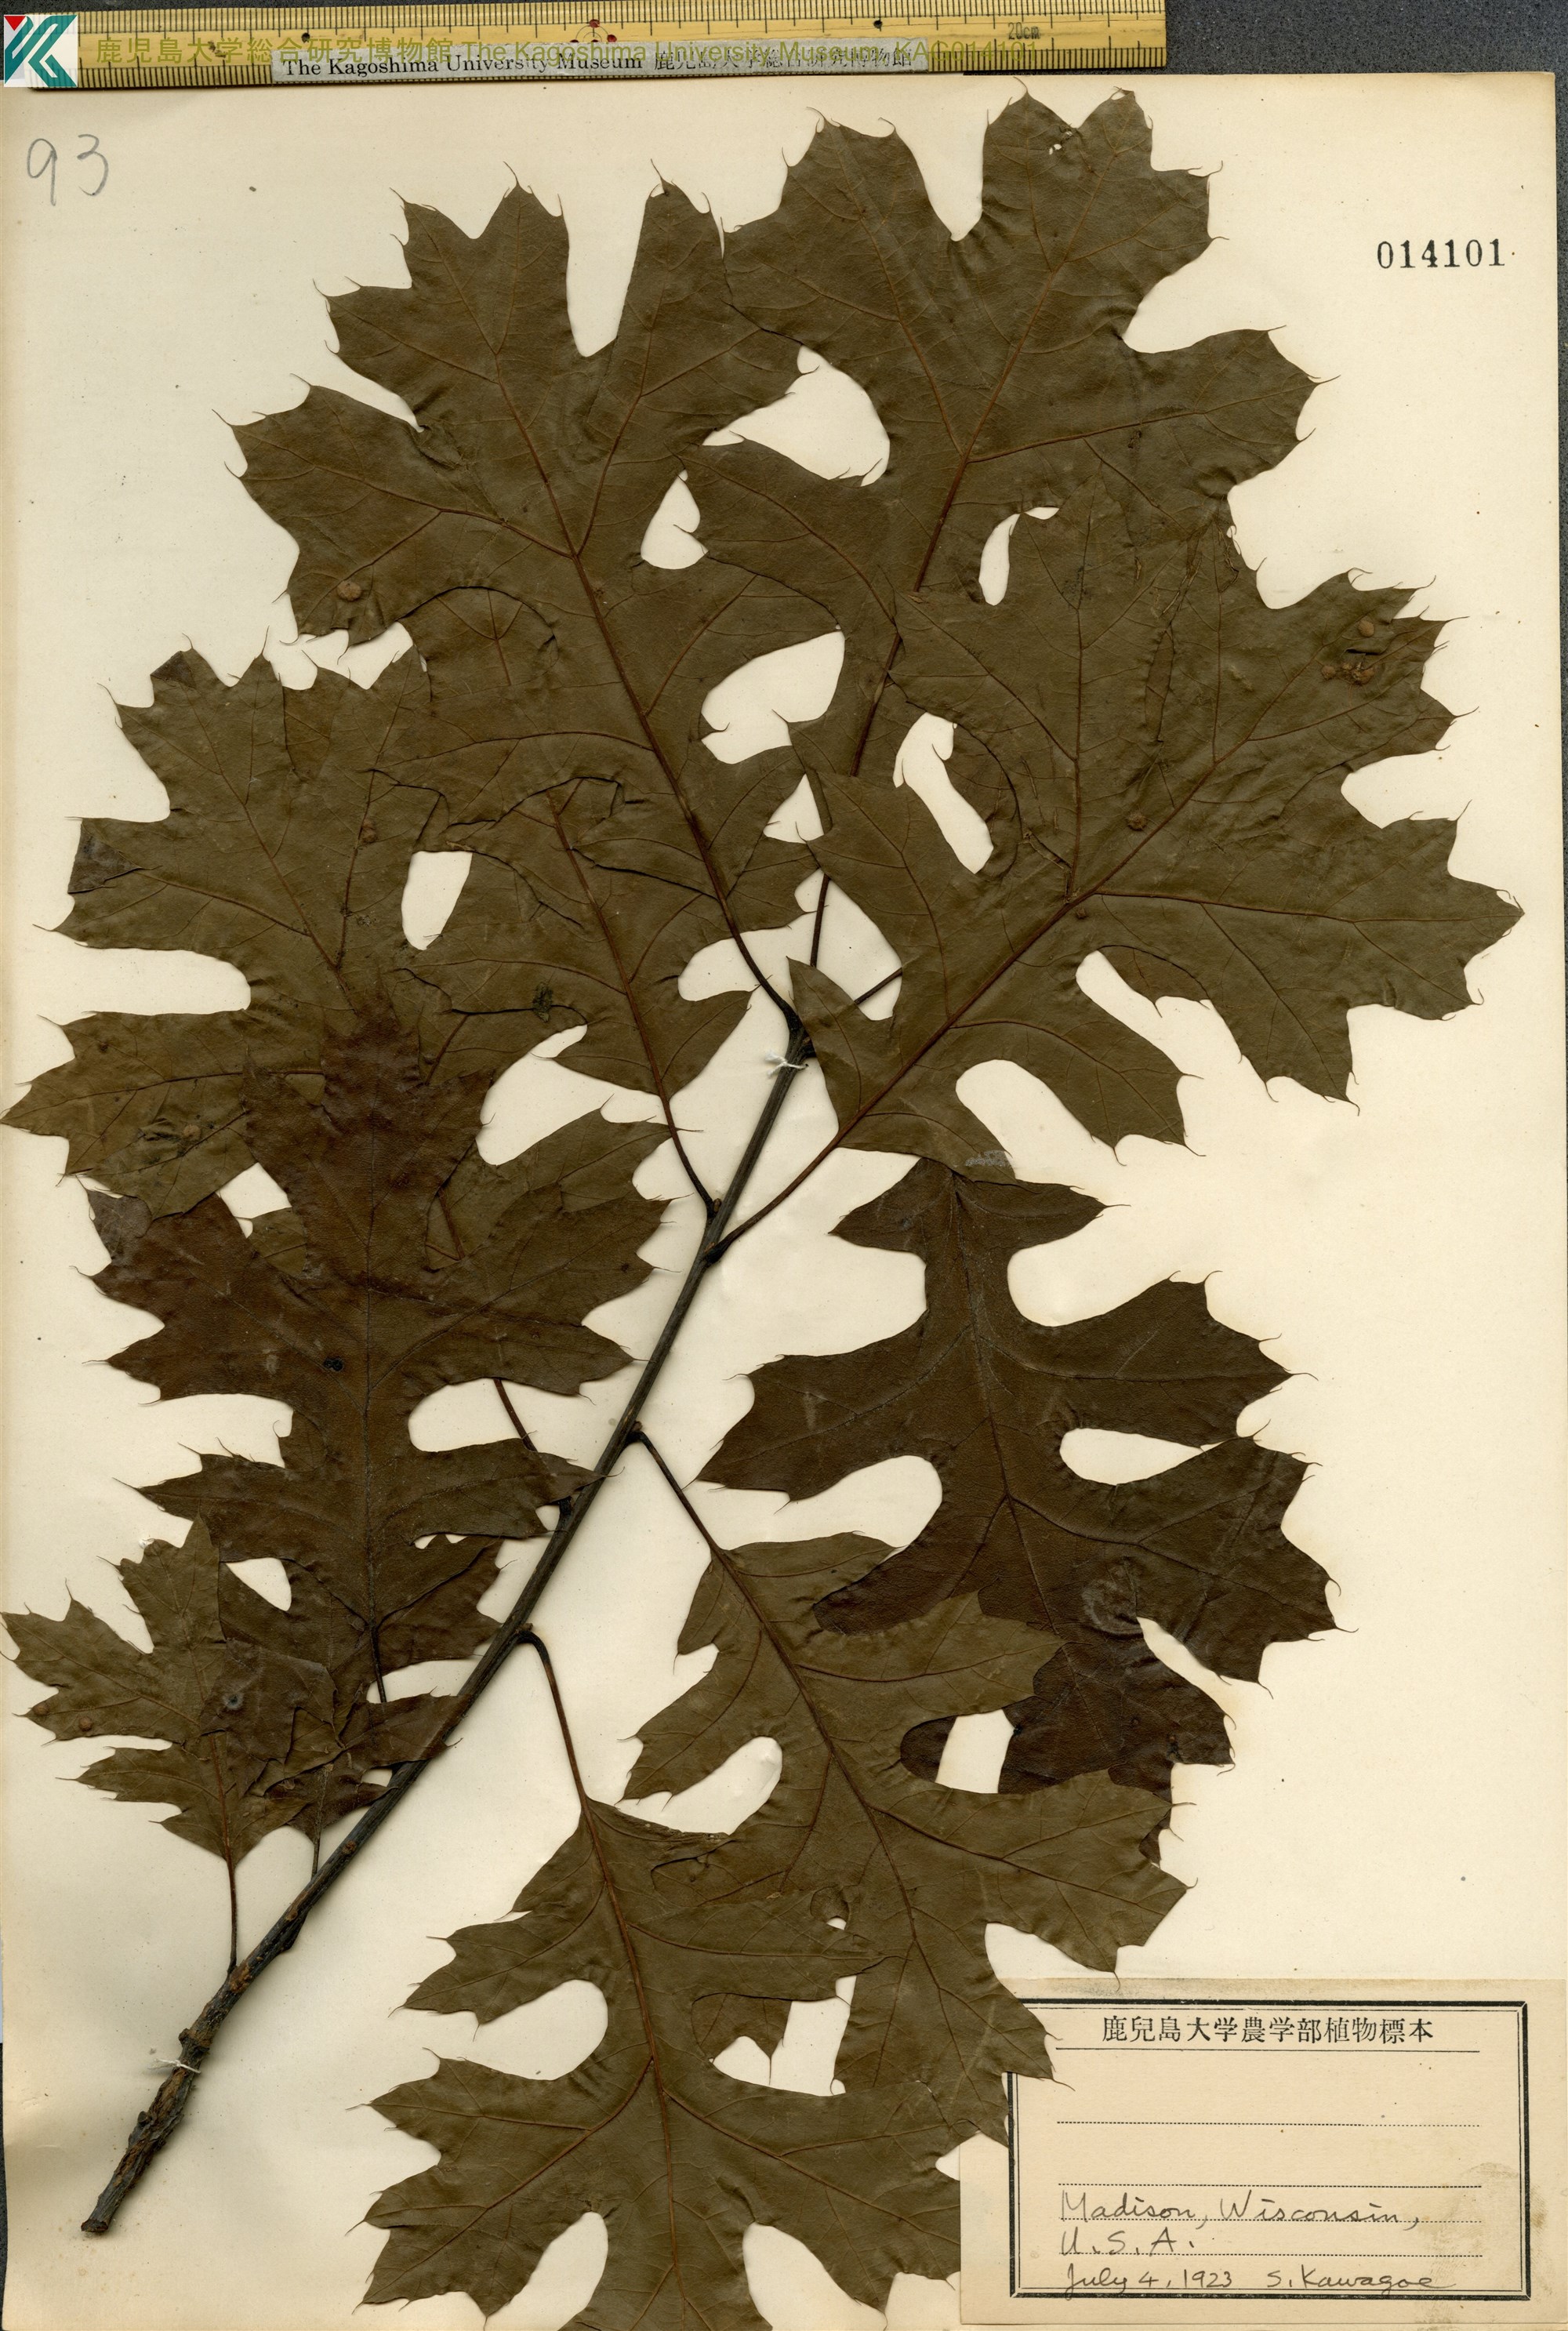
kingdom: Plantae
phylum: Tracheophyta
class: Magnoliopsida
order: Fagales
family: Fagaceae
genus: Quercus
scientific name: Quercus palustris
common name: Pin oak
